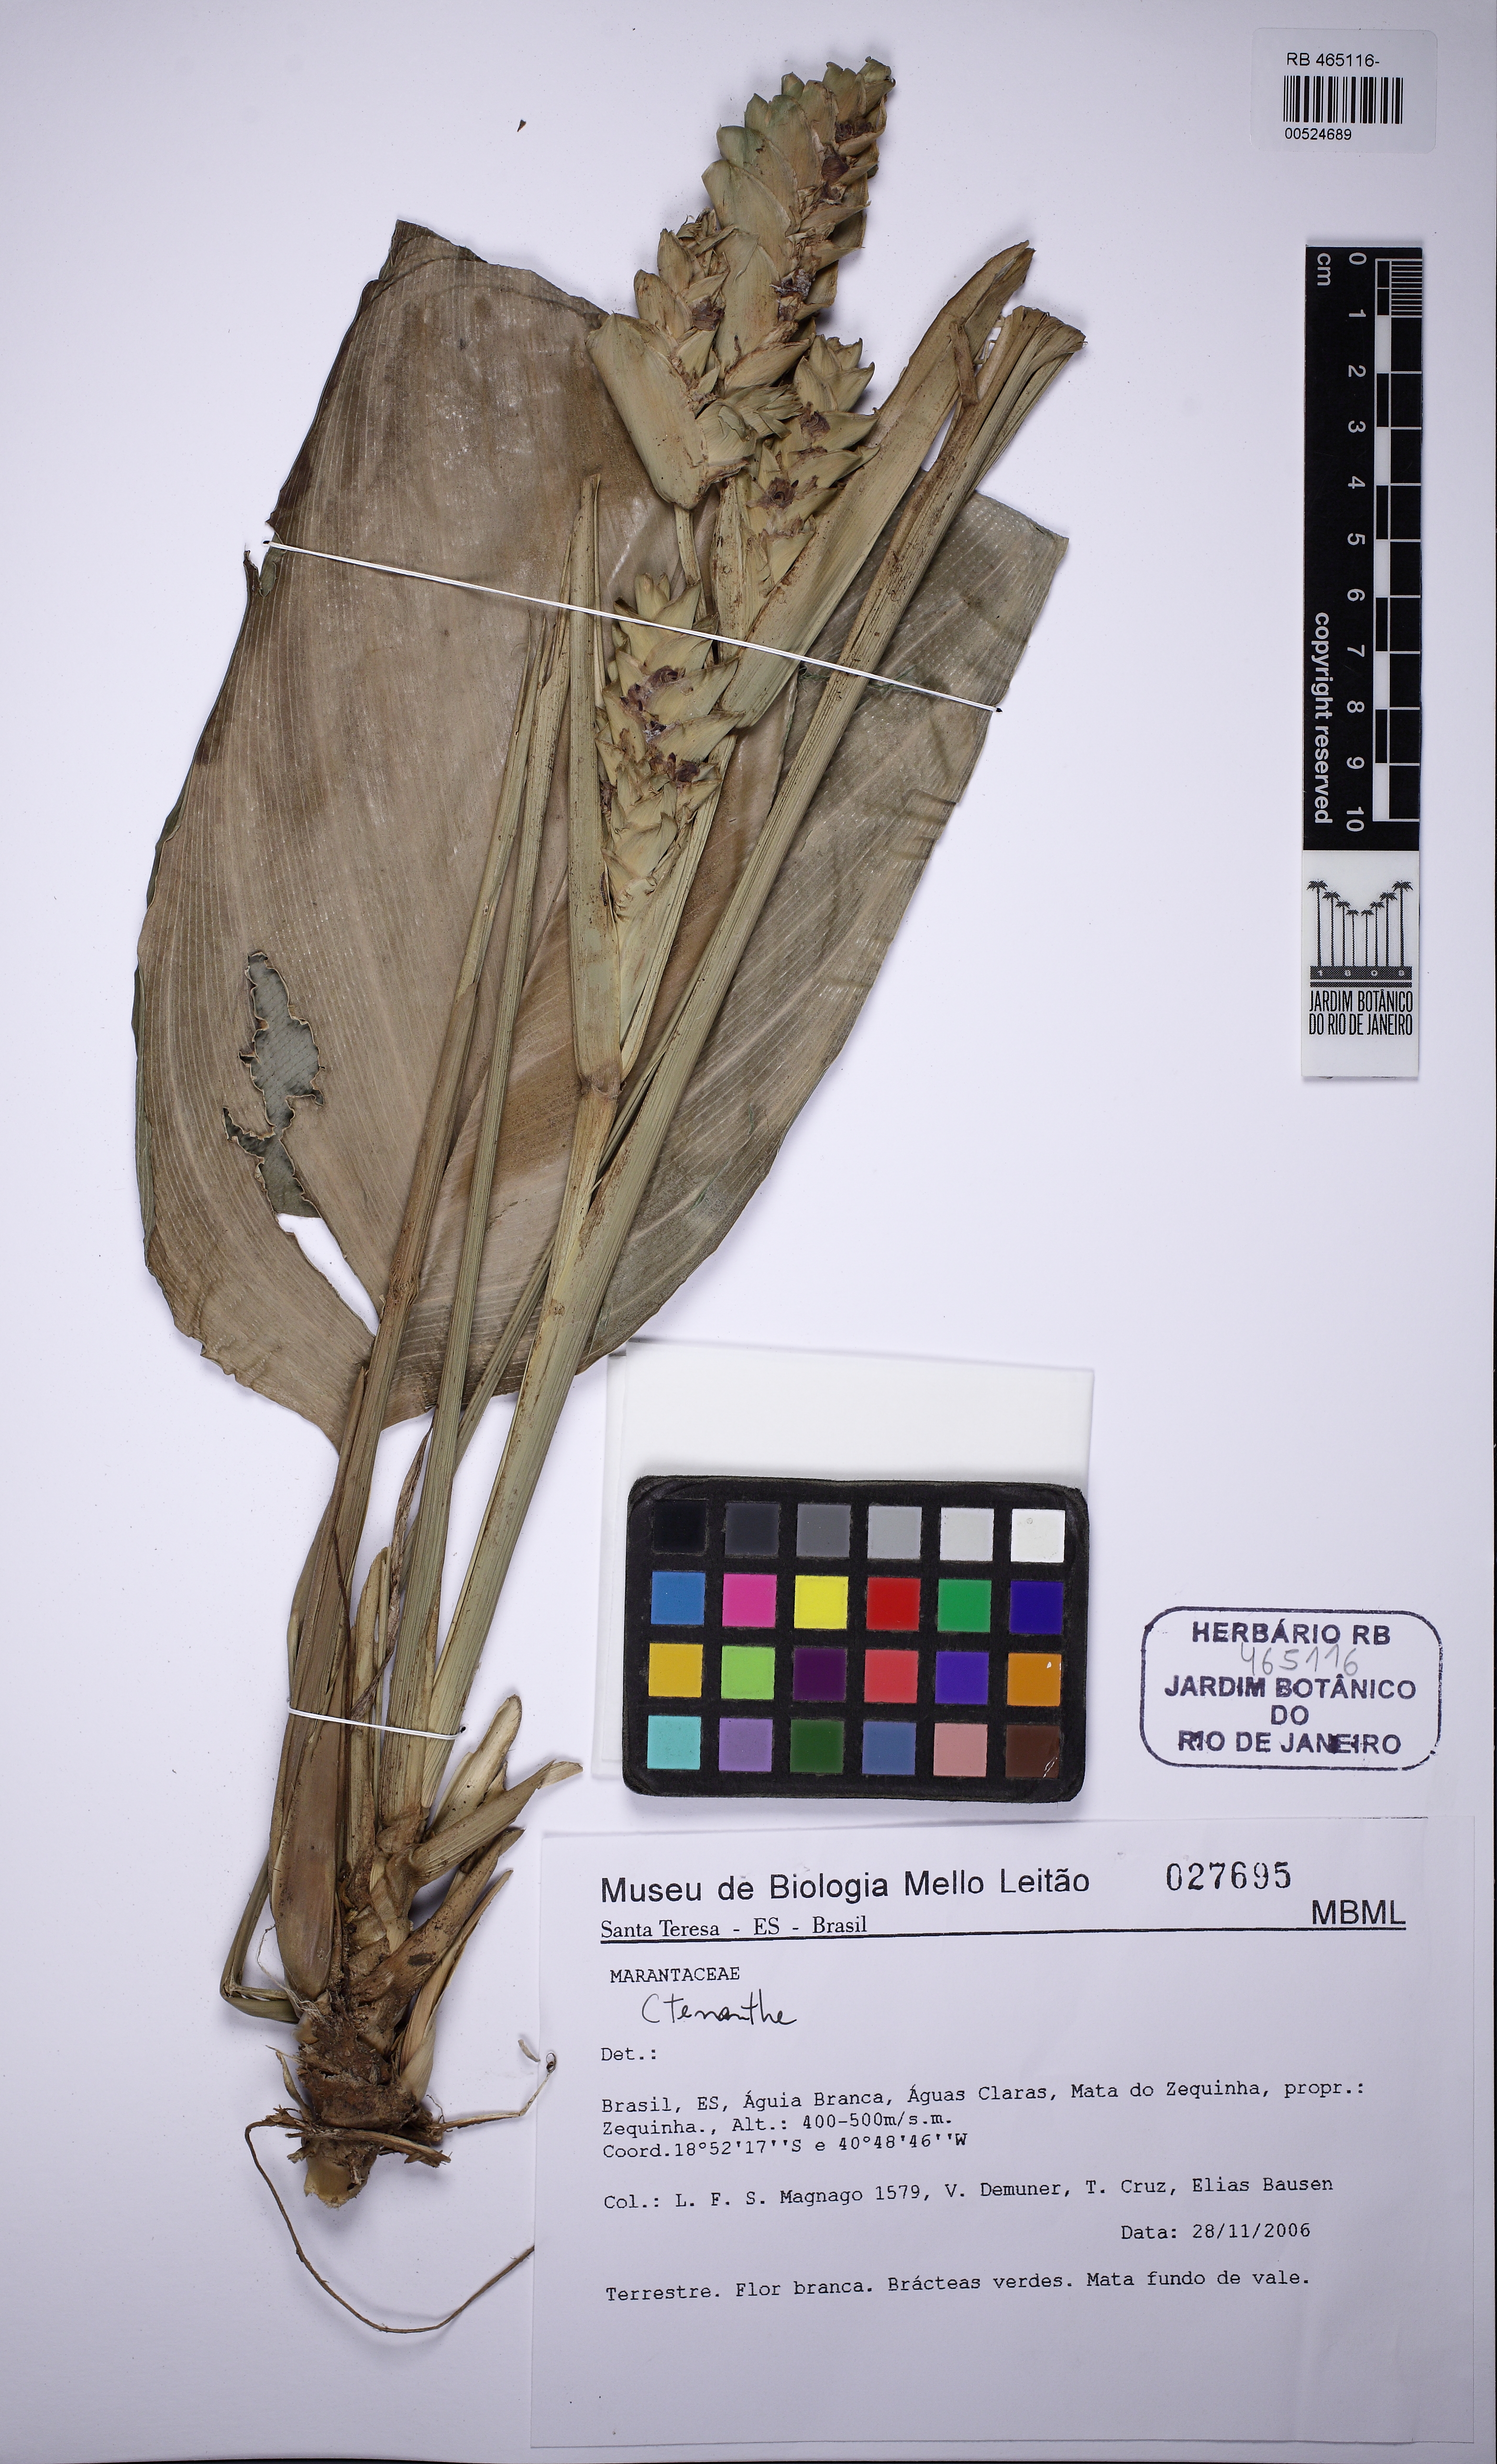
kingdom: Plantae
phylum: Tracheophyta
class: Liliopsida
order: Zingiberales
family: Marantaceae
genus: Ctenanthe
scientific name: Ctenanthe
